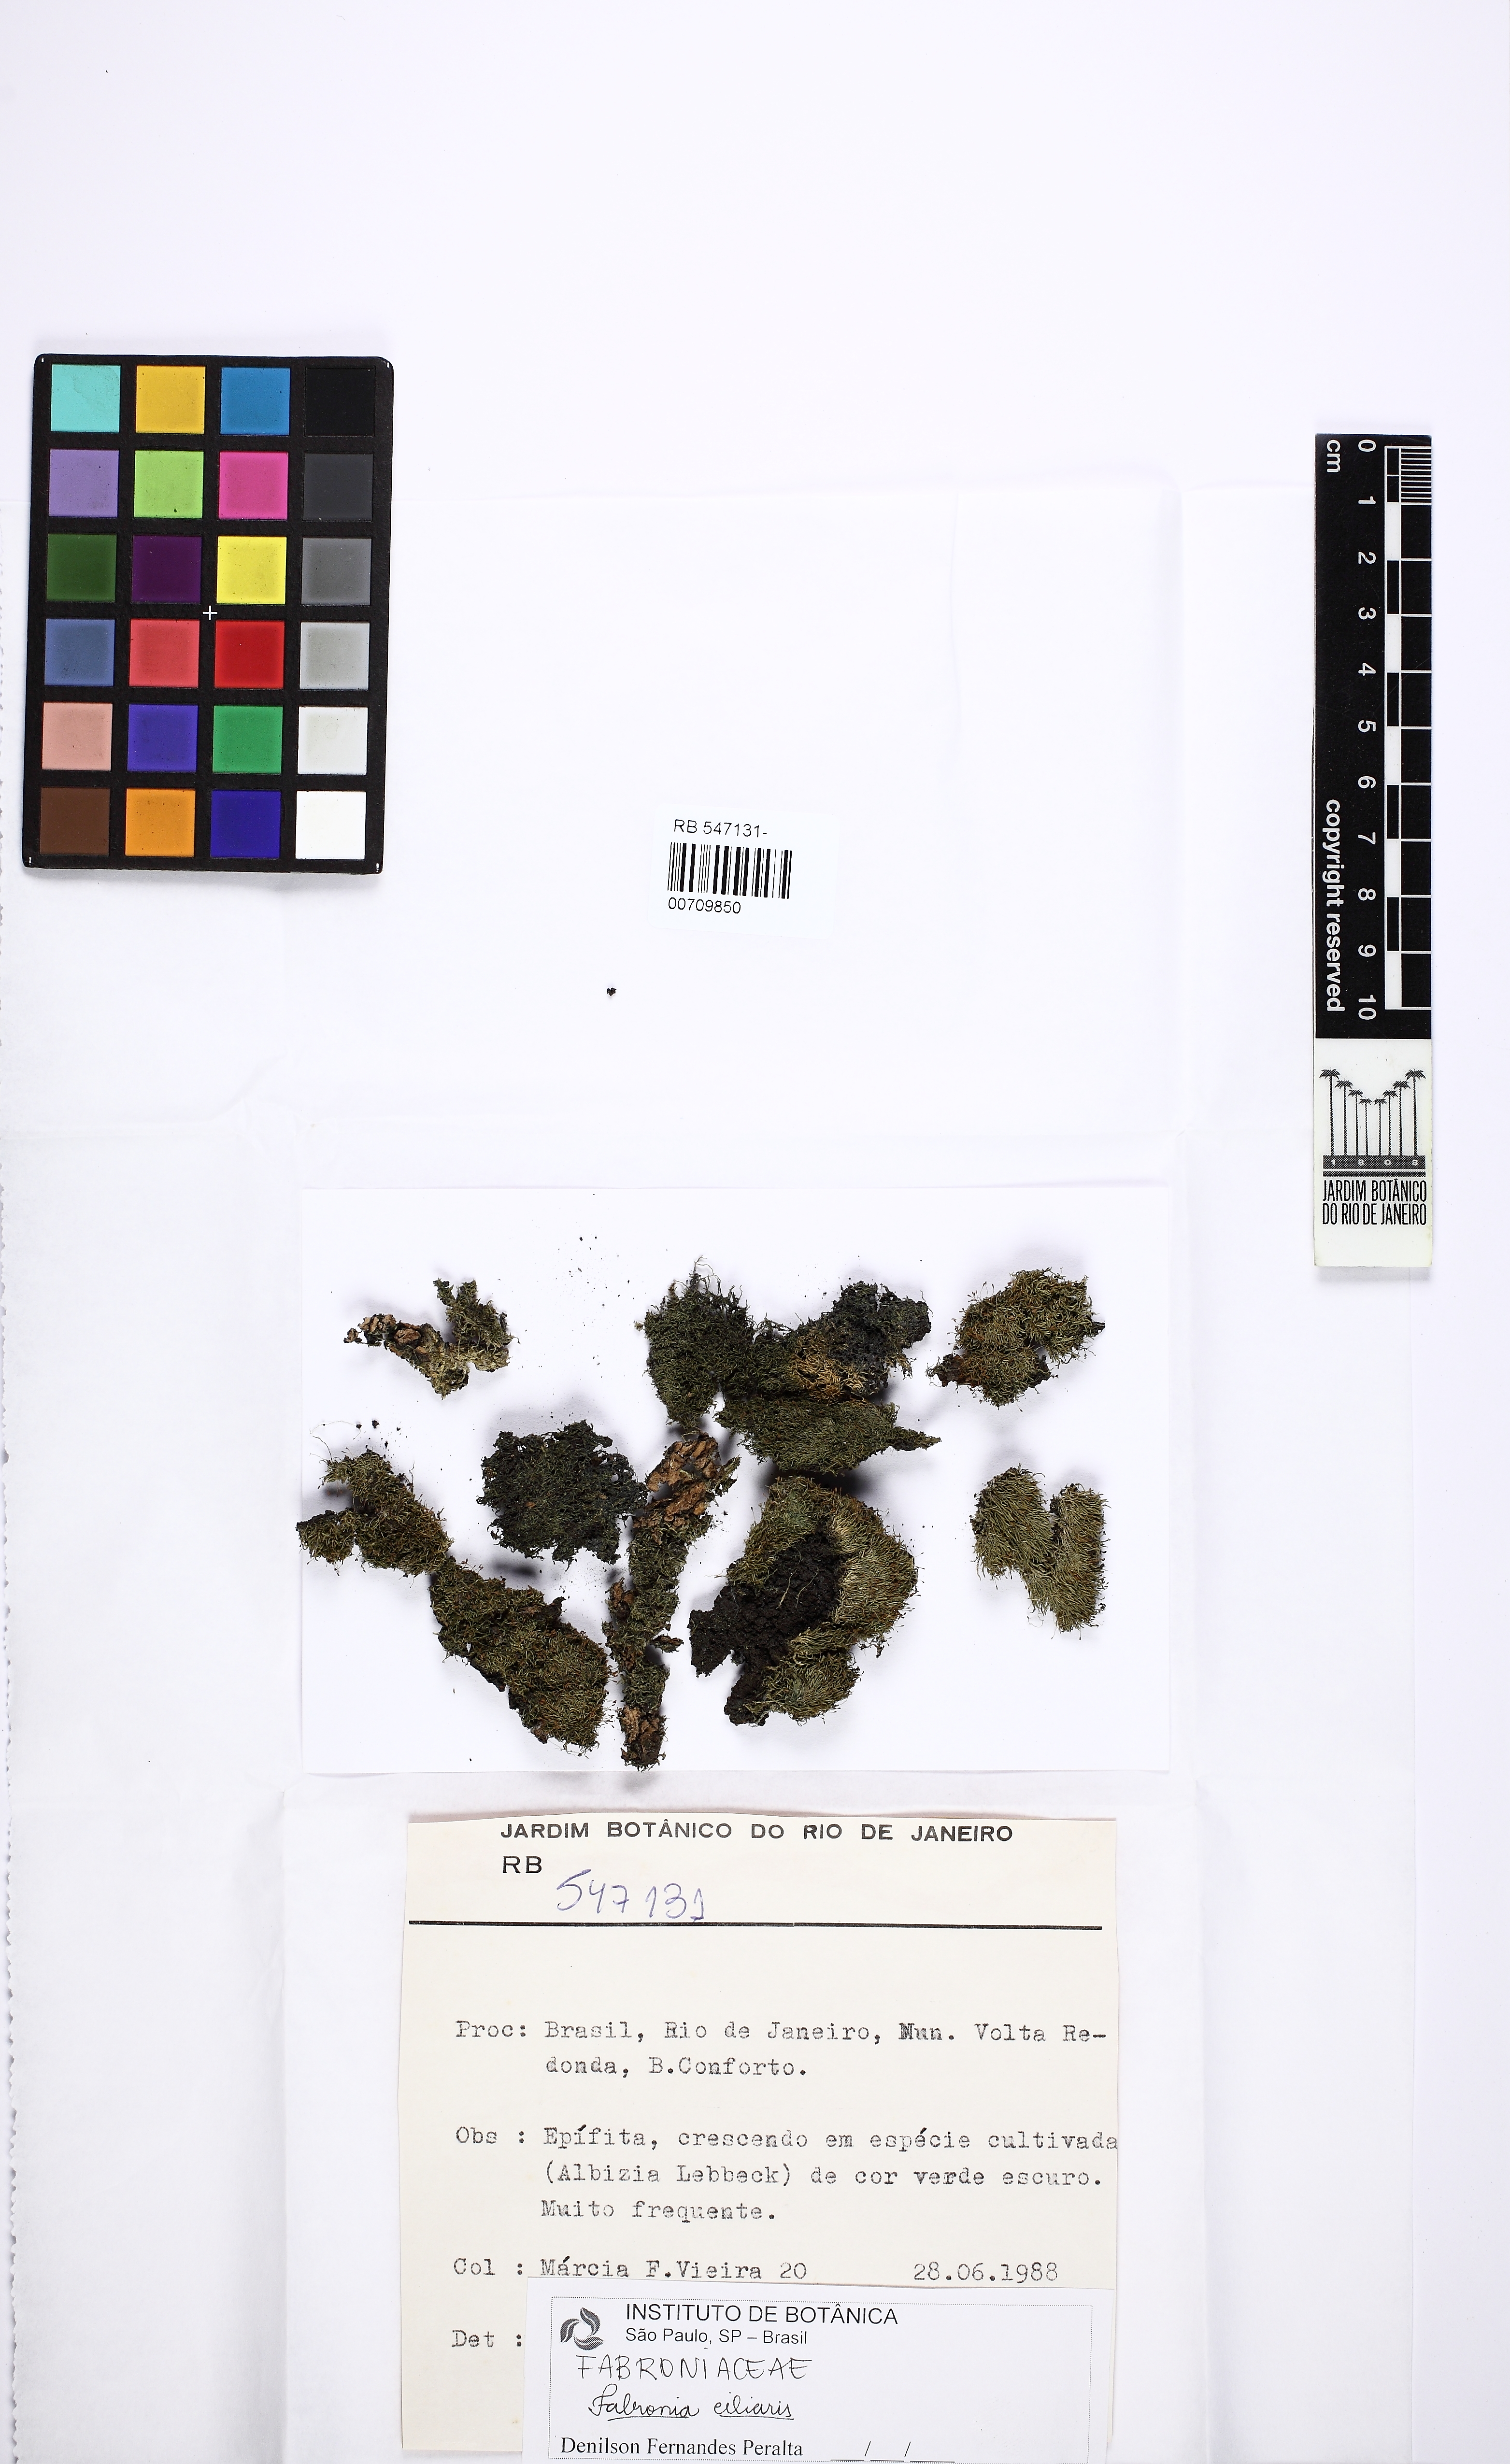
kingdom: Plantae
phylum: Bryophyta
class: Bryopsida
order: Hypnales
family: Fabroniaceae
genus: Fabronia
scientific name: Fabronia ciliaris
